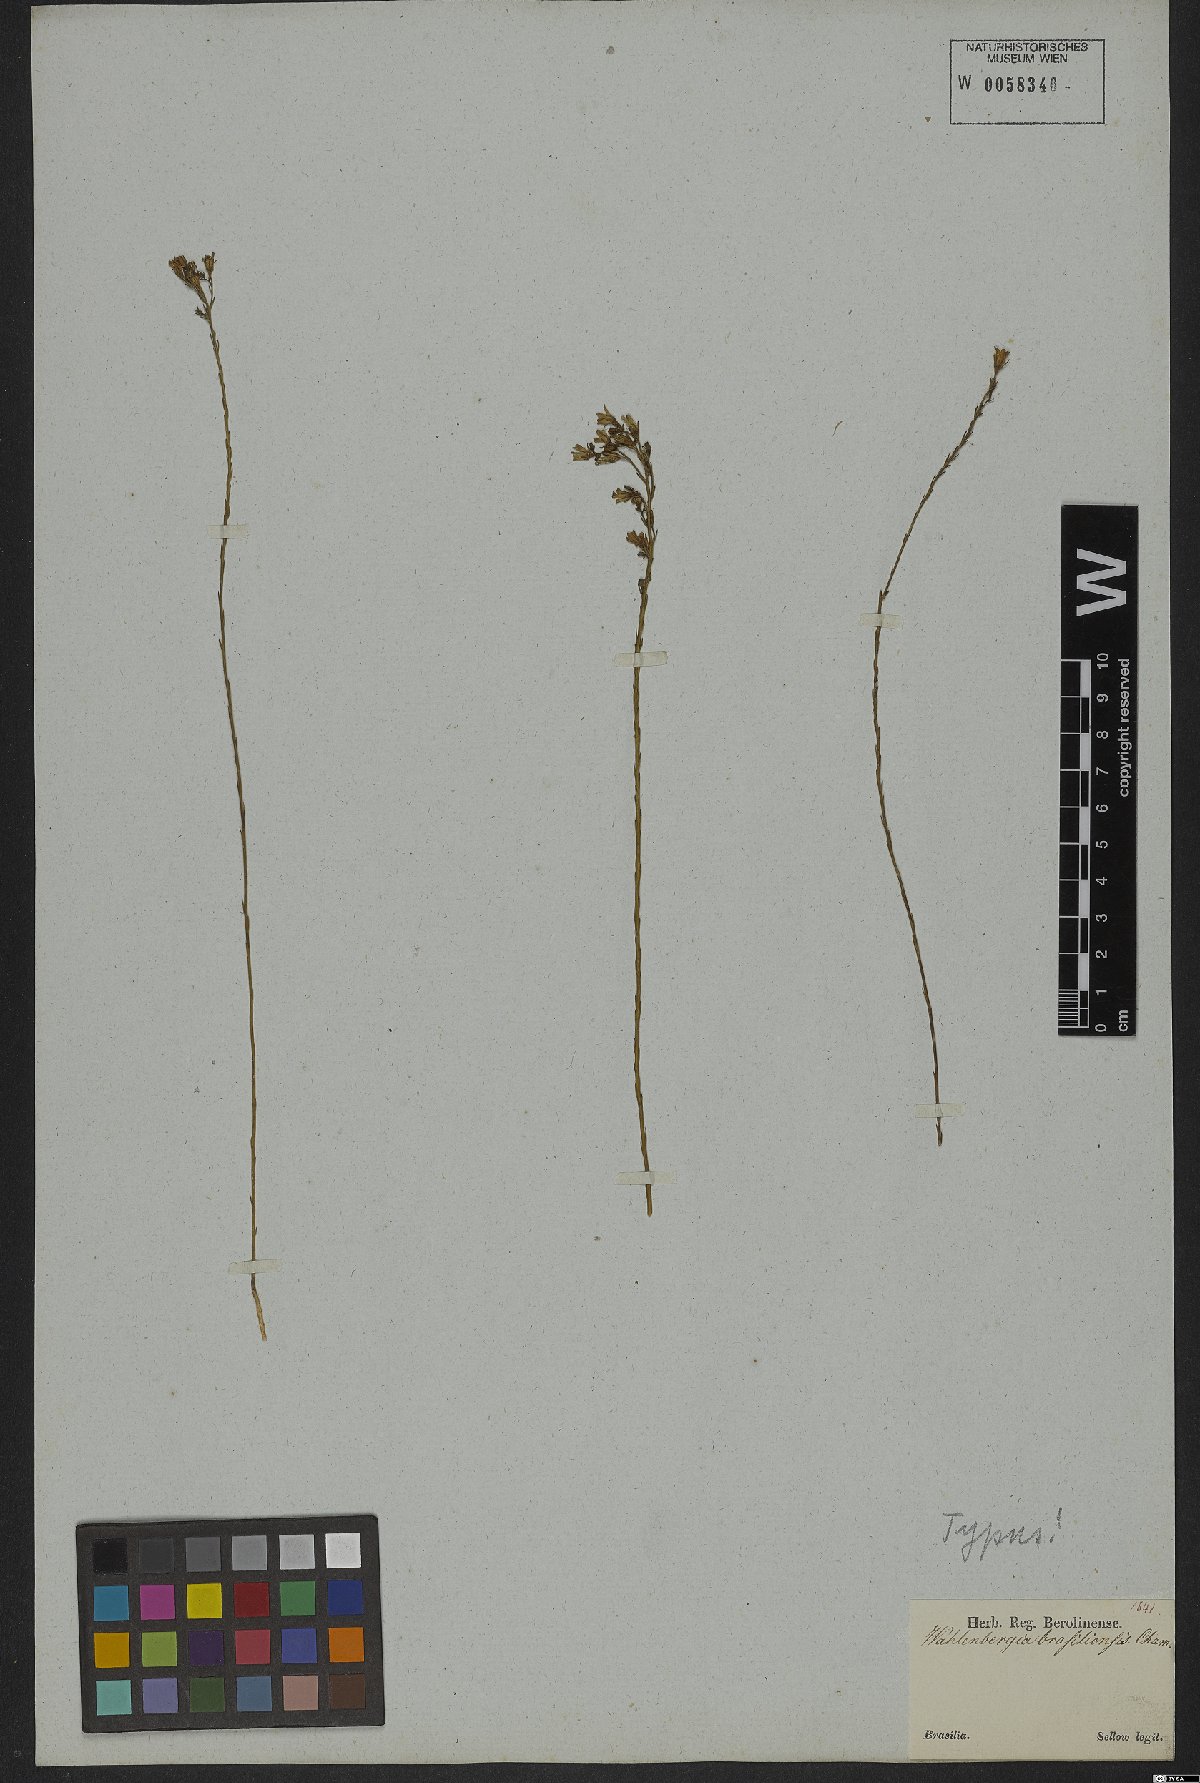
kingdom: Plantae
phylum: Tracheophyta
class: Magnoliopsida
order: Asterales
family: Campanulaceae
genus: Wahlenbergia
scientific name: Wahlenbergia brasiliensis
